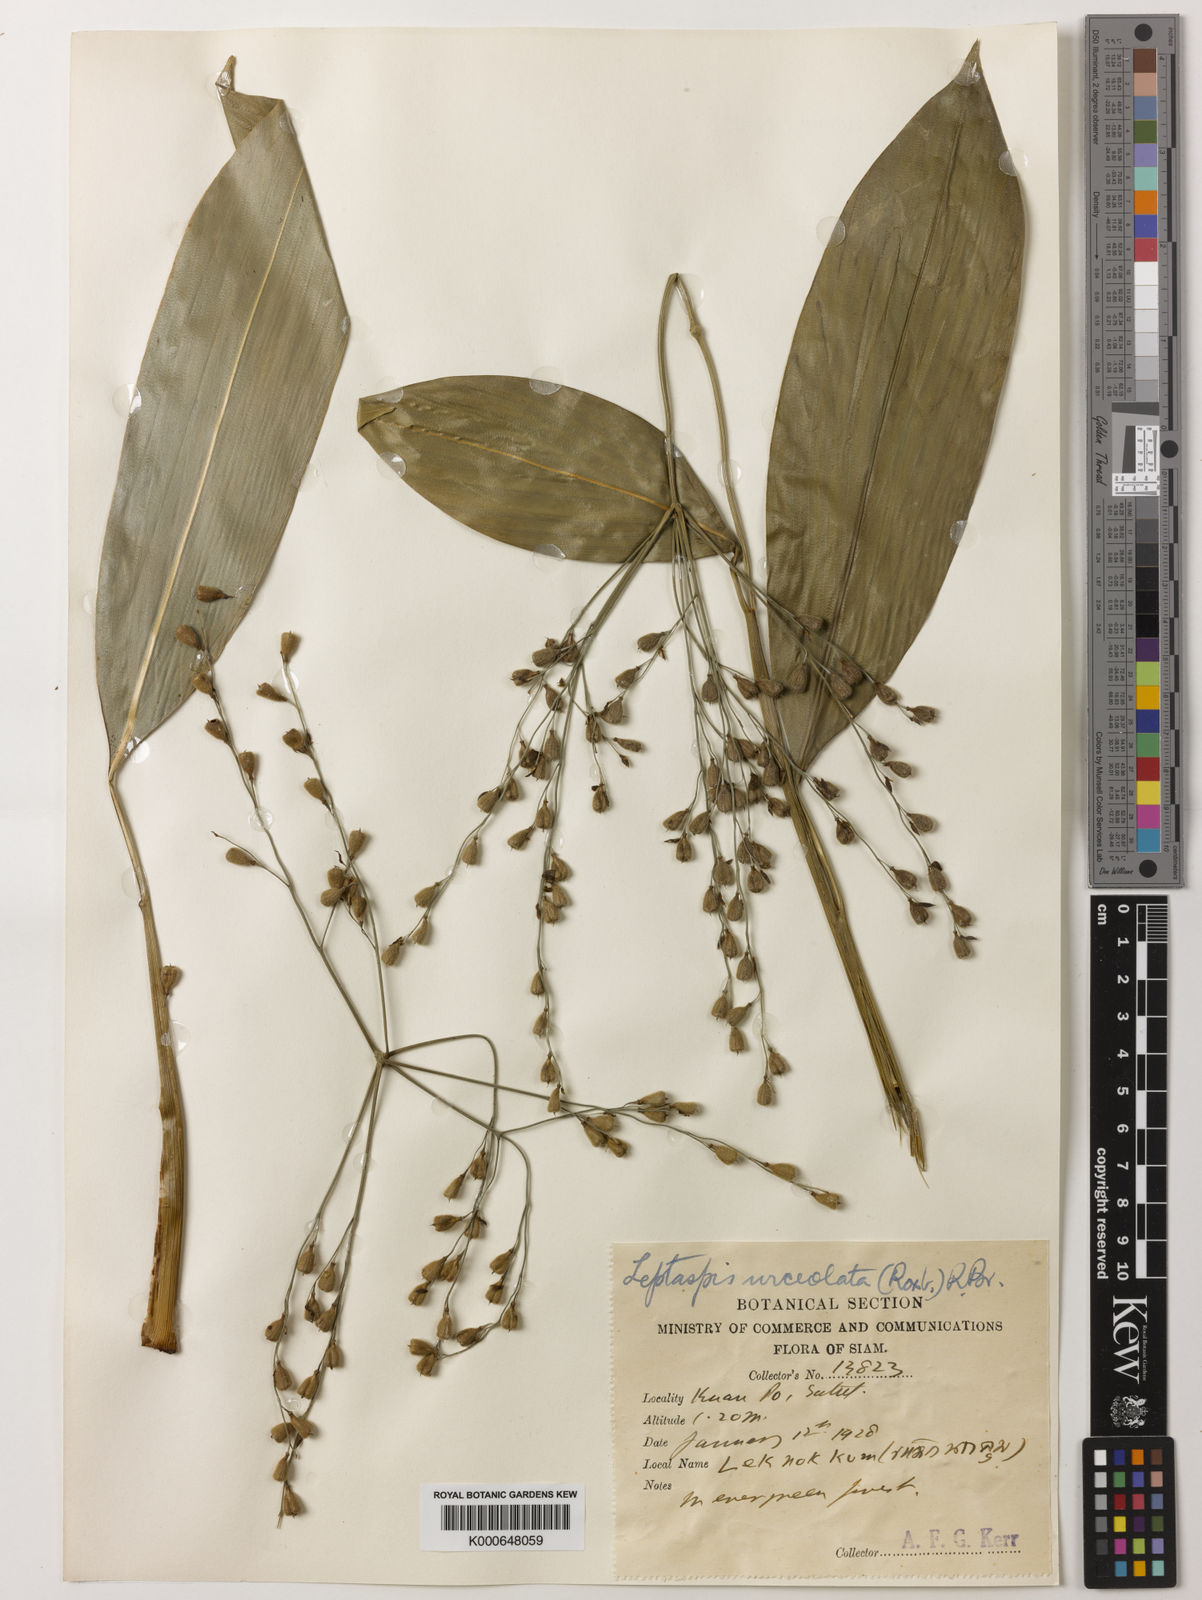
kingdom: Plantae
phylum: Tracheophyta
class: Liliopsida
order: Poales
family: Poaceae
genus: Scrotochloa
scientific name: Scrotochloa urceolata
